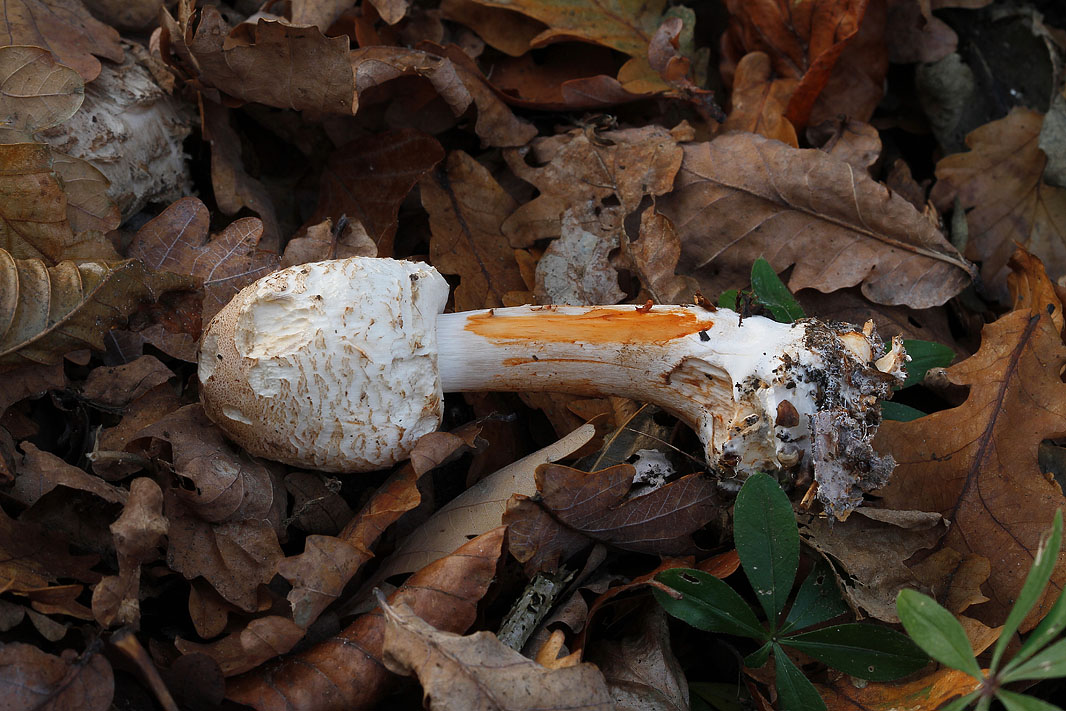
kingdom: Fungi
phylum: Basidiomycota
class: Agaricomycetes
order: Agaricales
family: Agaricaceae
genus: Chlorophyllum
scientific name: Chlorophyllum rhacodes
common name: ægte rabarberhat
